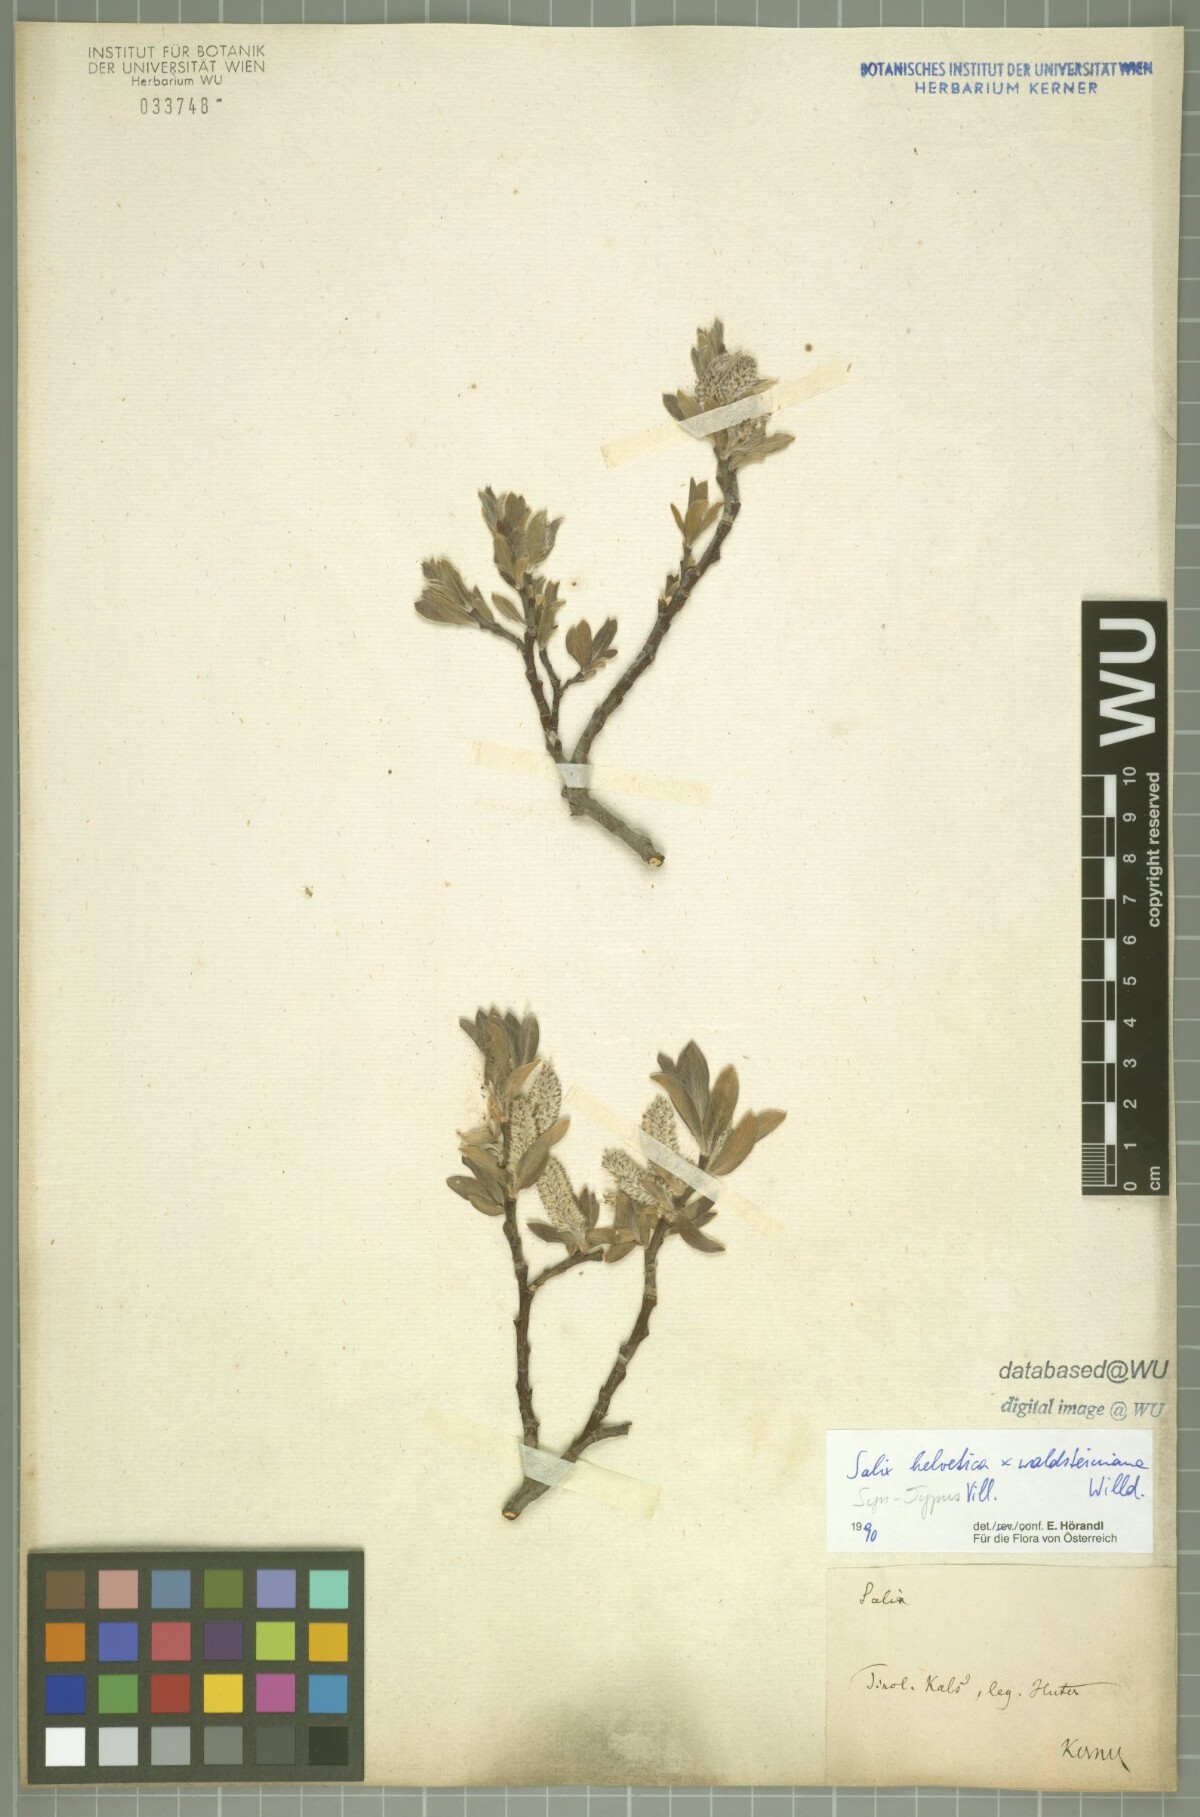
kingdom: Plantae
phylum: Tracheophyta
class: Magnoliopsida
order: Malpighiales
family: Salicaceae
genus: Salix
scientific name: Salix lapponum
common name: Downy willow
